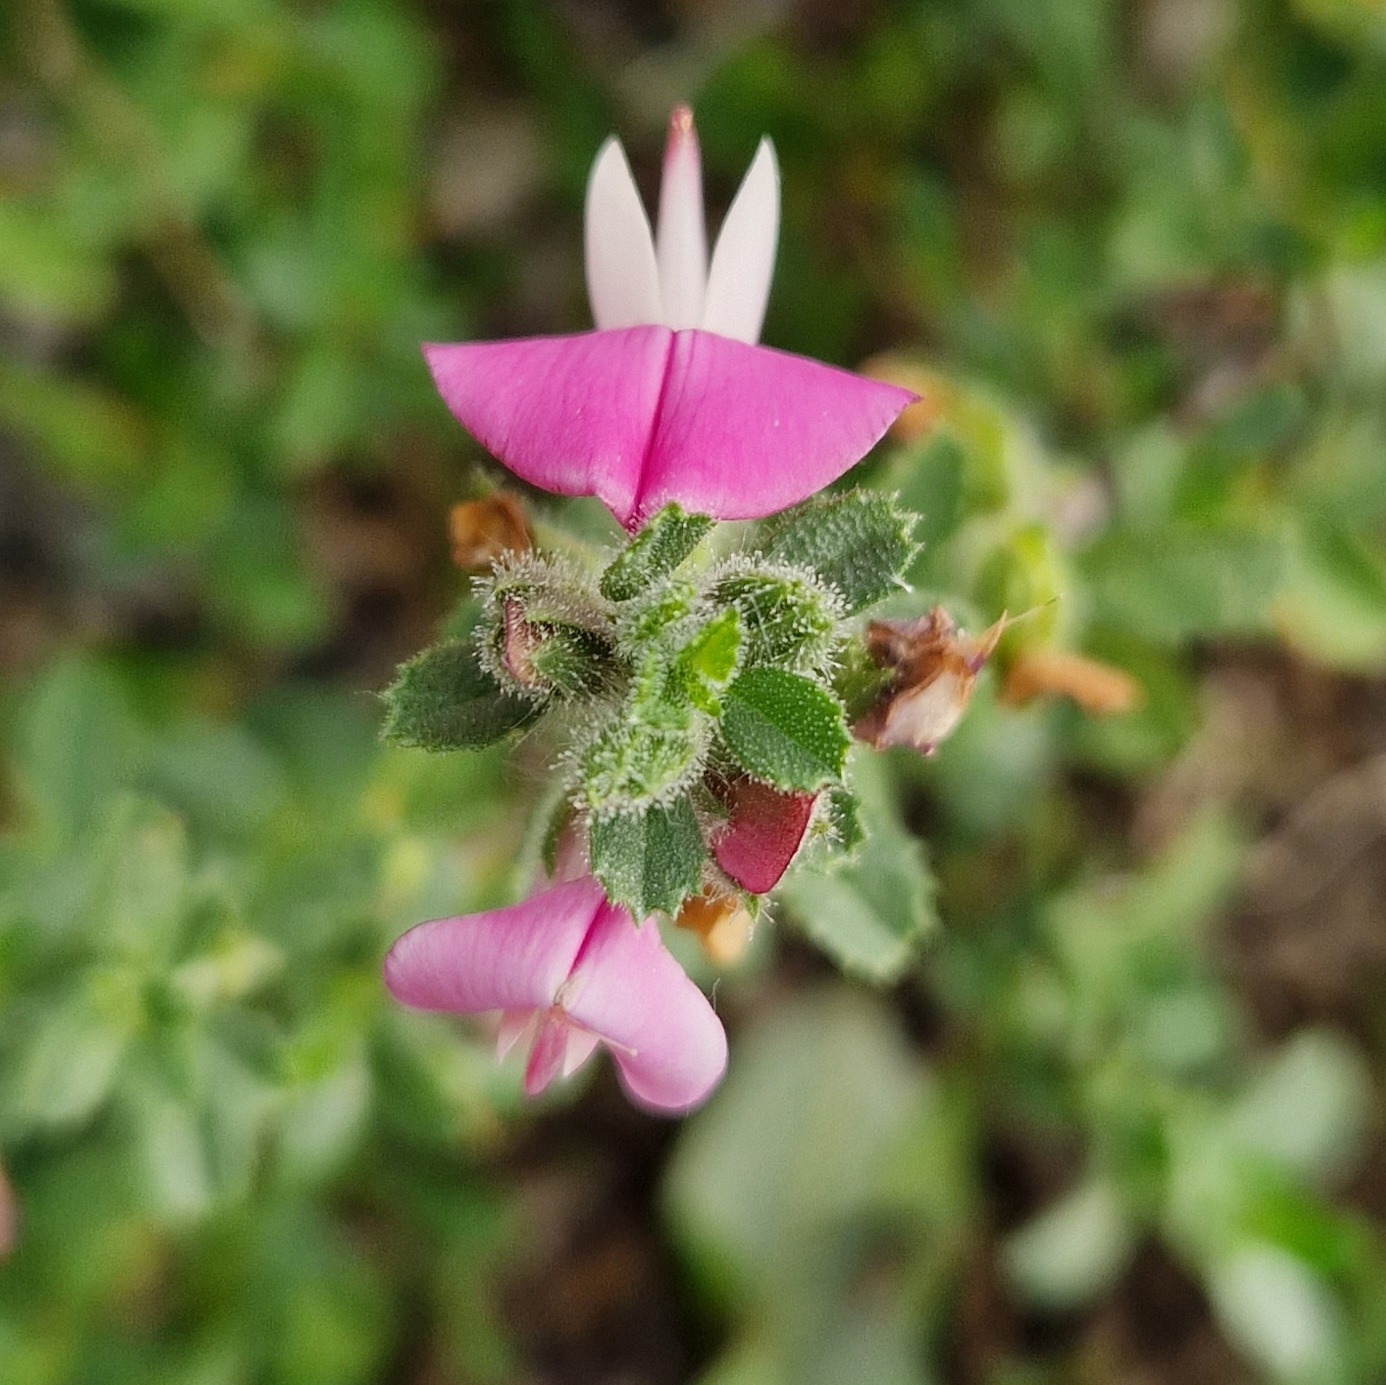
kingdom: Plantae
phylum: Tracheophyta
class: Magnoliopsida
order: Fabales
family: Fabaceae
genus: Ononis
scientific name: Ononis spinosa
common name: Mark-krageklo
